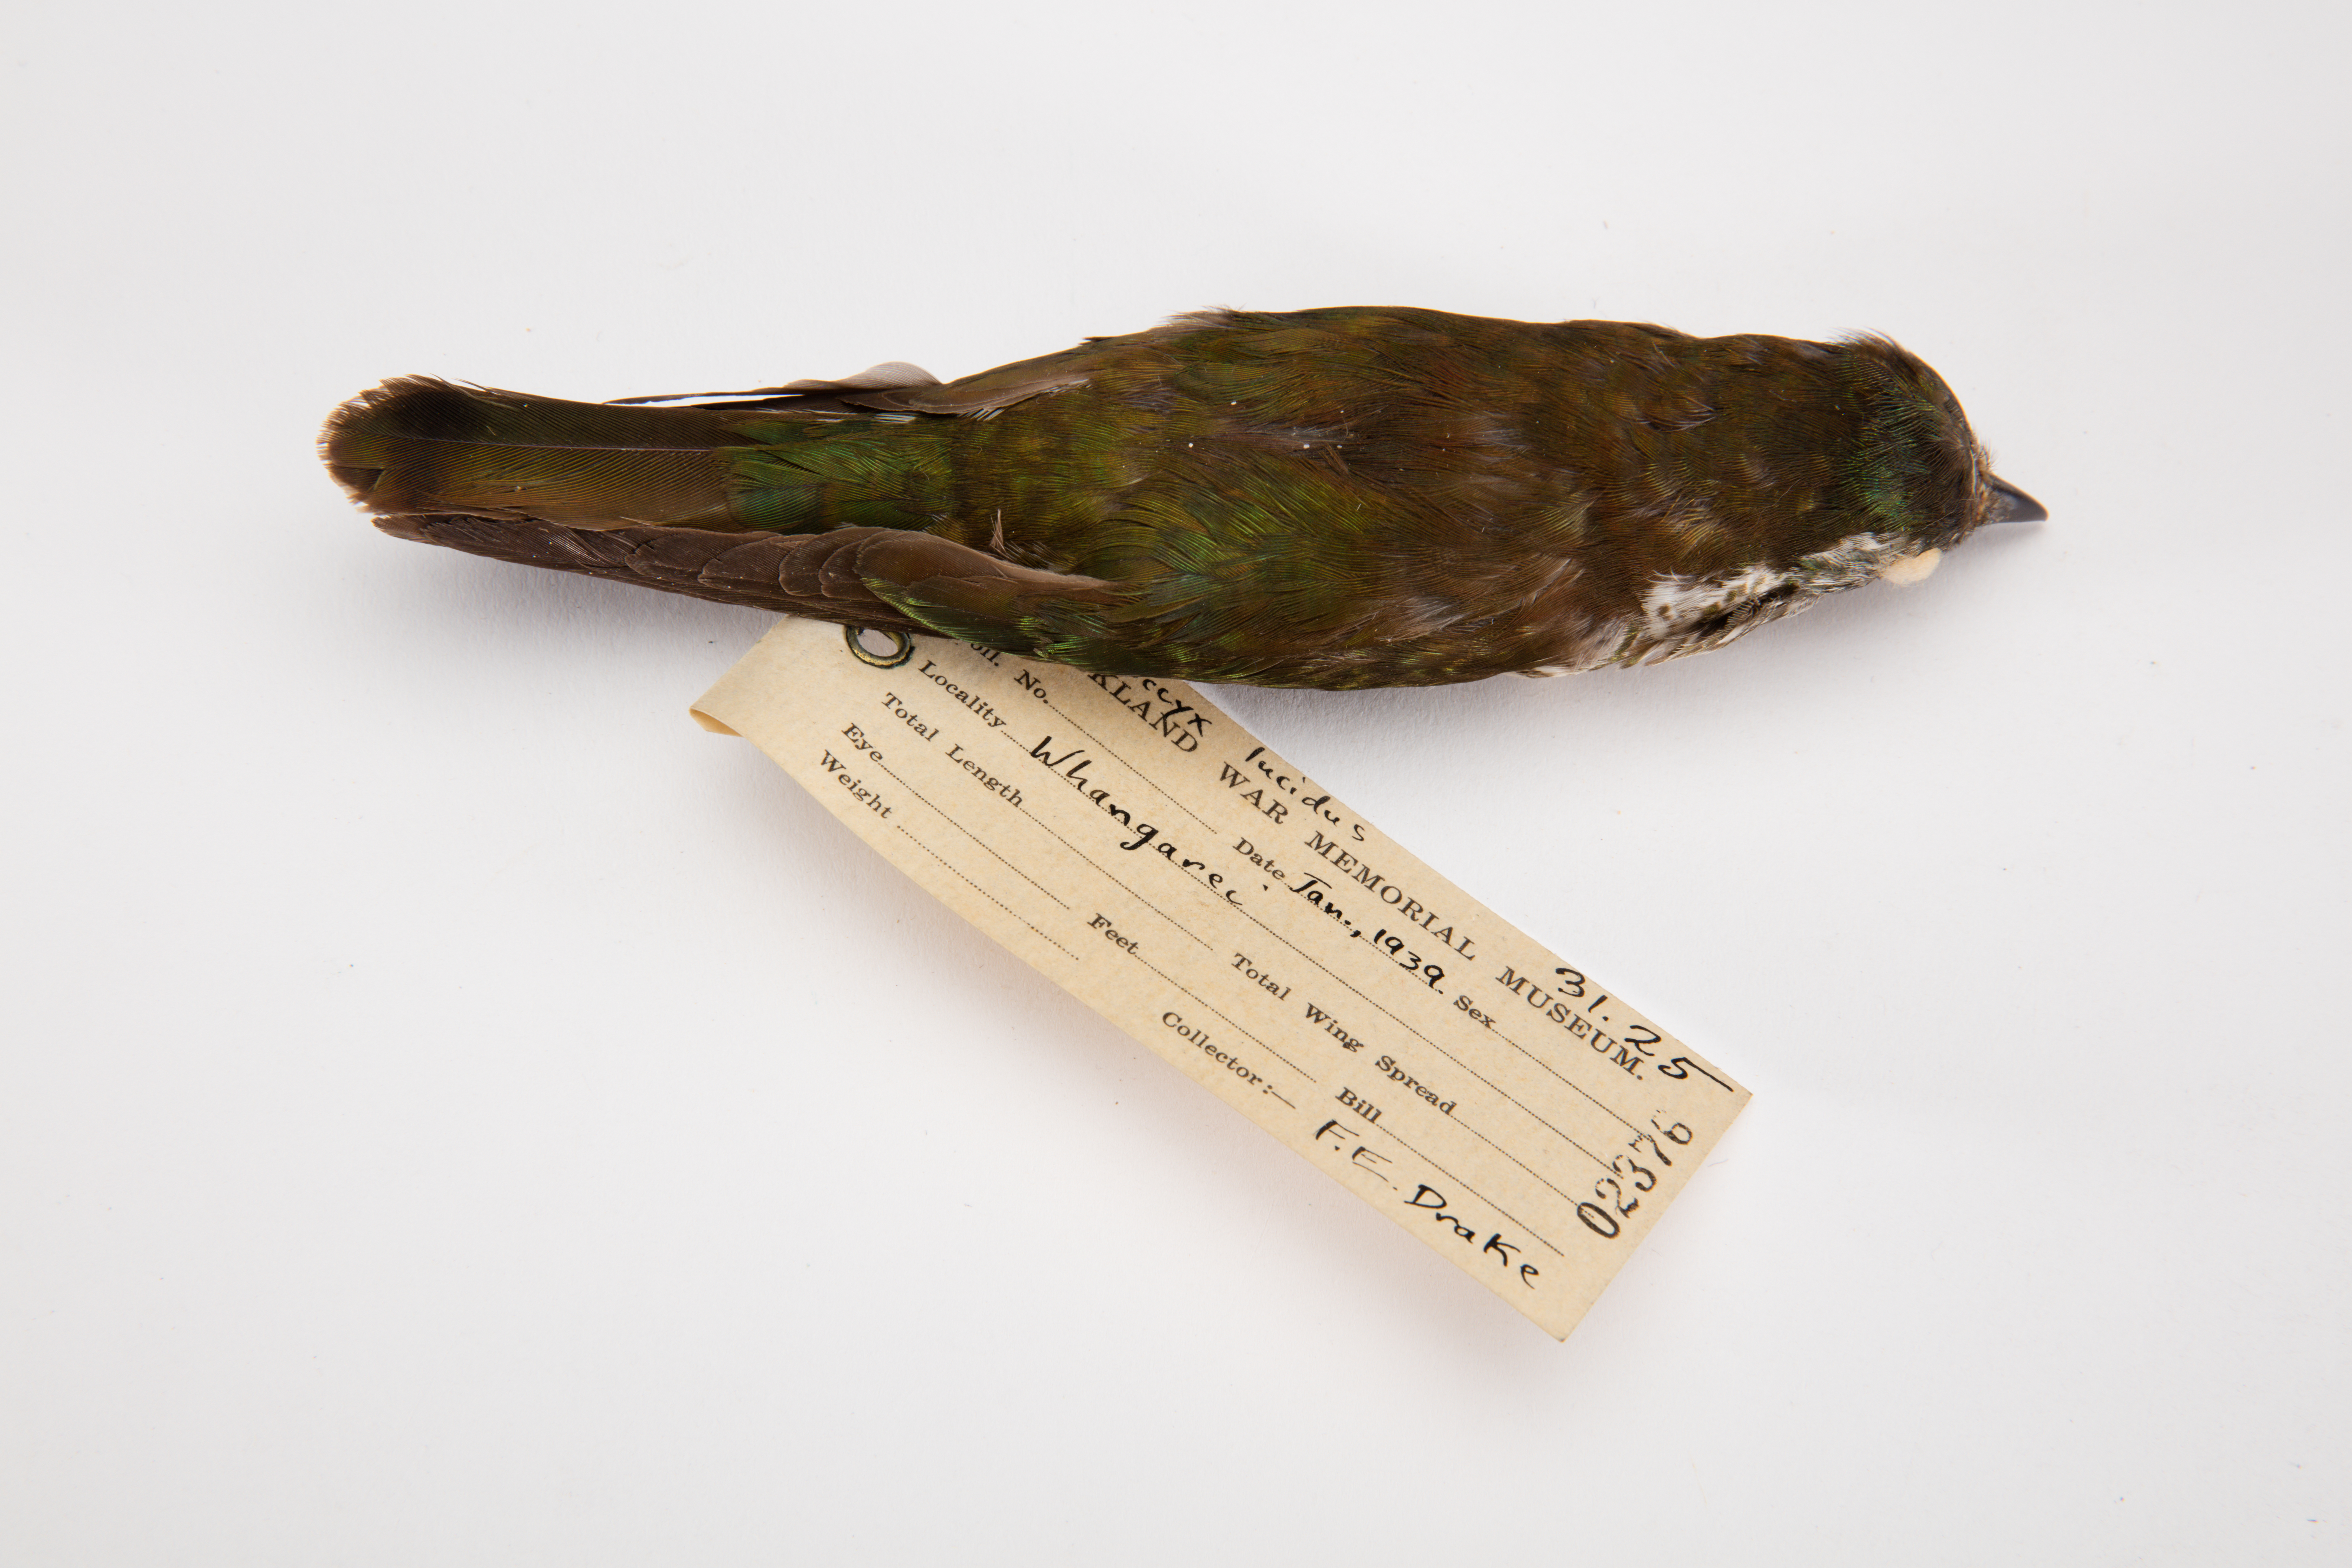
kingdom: Animalia
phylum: Chordata
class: Aves
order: Cuculiformes
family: Cuculidae
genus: Chrysococcyx
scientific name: Chrysococcyx lucidus
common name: Shining bronze cuckoo
